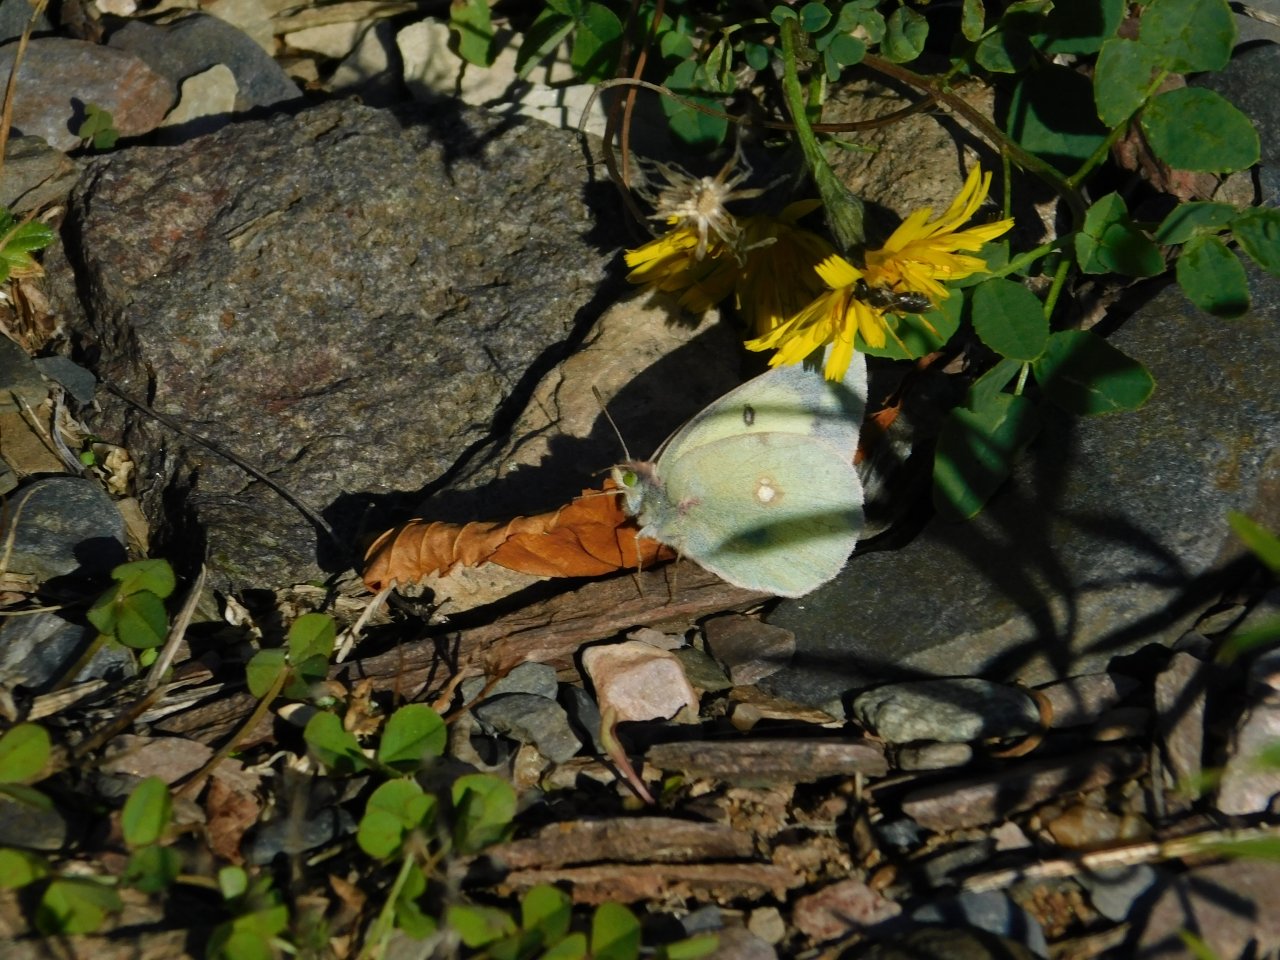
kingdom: Animalia
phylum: Arthropoda
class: Insecta
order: Lepidoptera
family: Pieridae
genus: Colias
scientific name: Colias philodice
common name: Clouded Sulphur
